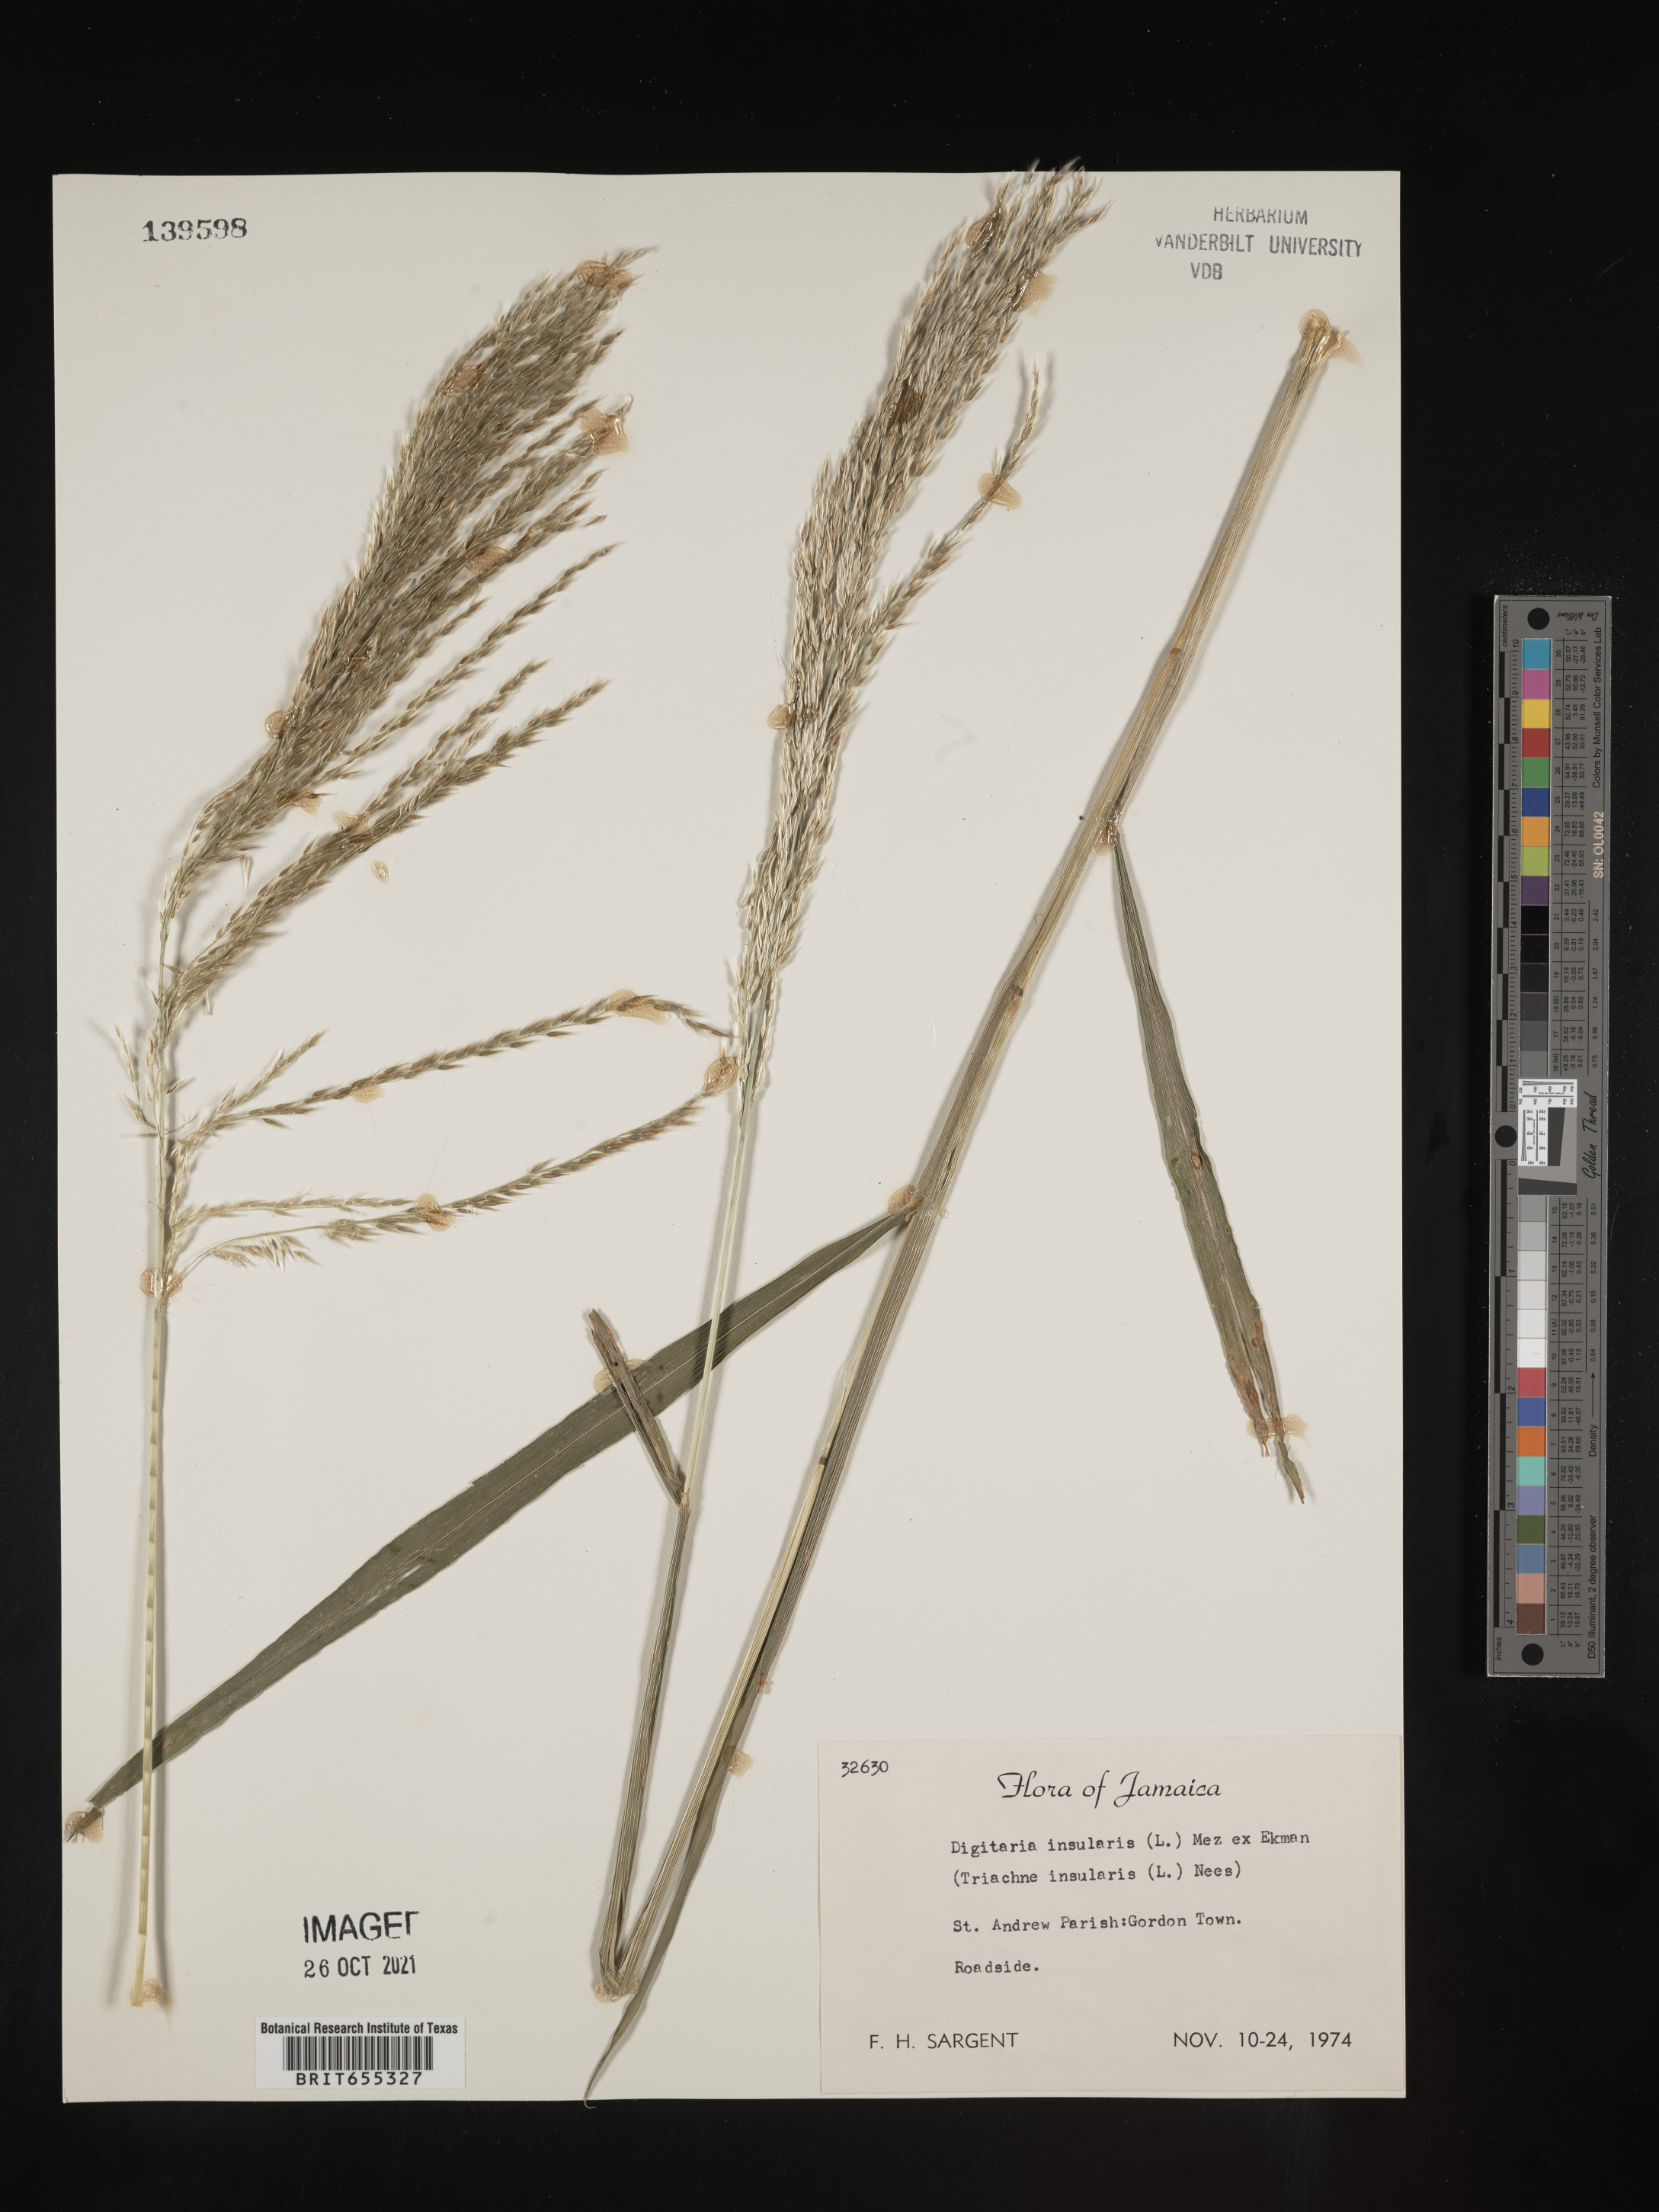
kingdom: Plantae
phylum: Tracheophyta
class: Liliopsida
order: Poales
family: Poaceae
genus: Digitaria
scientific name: Digitaria
